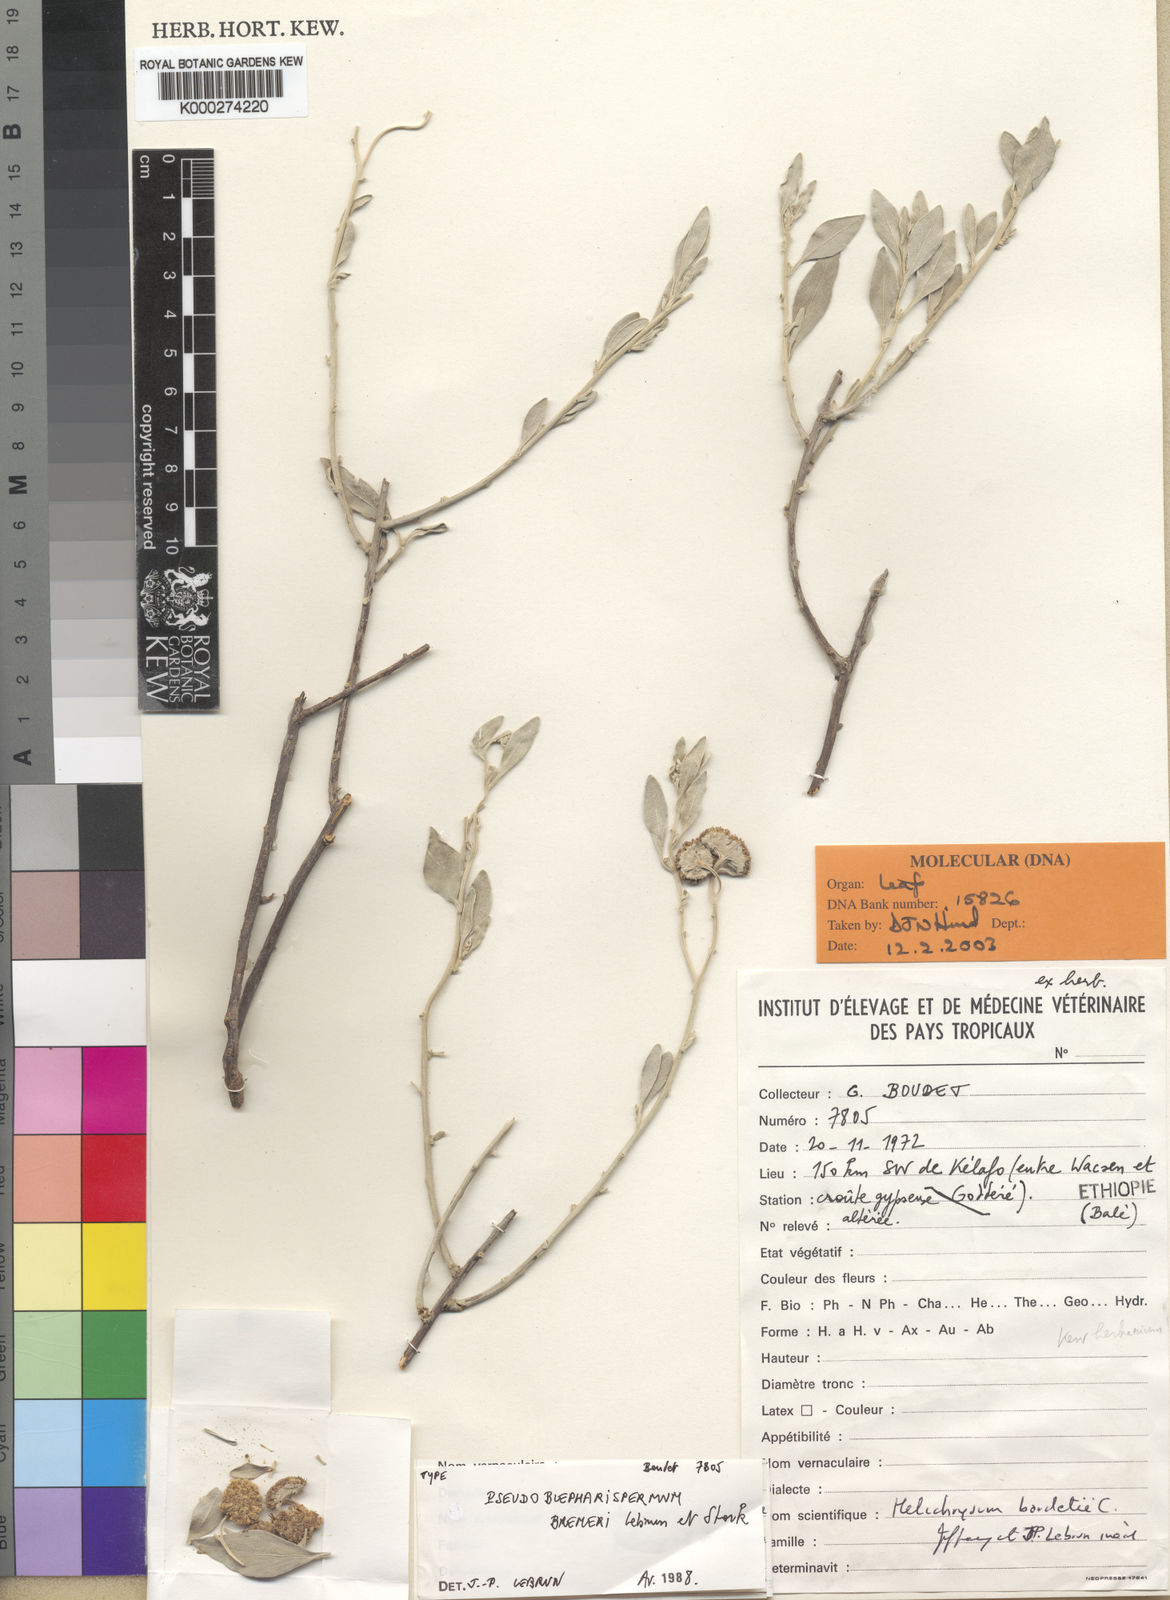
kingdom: Plantae
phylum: Tracheophyta
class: Magnoliopsida
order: Asterales
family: Asteraceae
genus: Pseudoblepharispermum
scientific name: Pseudoblepharispermum bremeri
